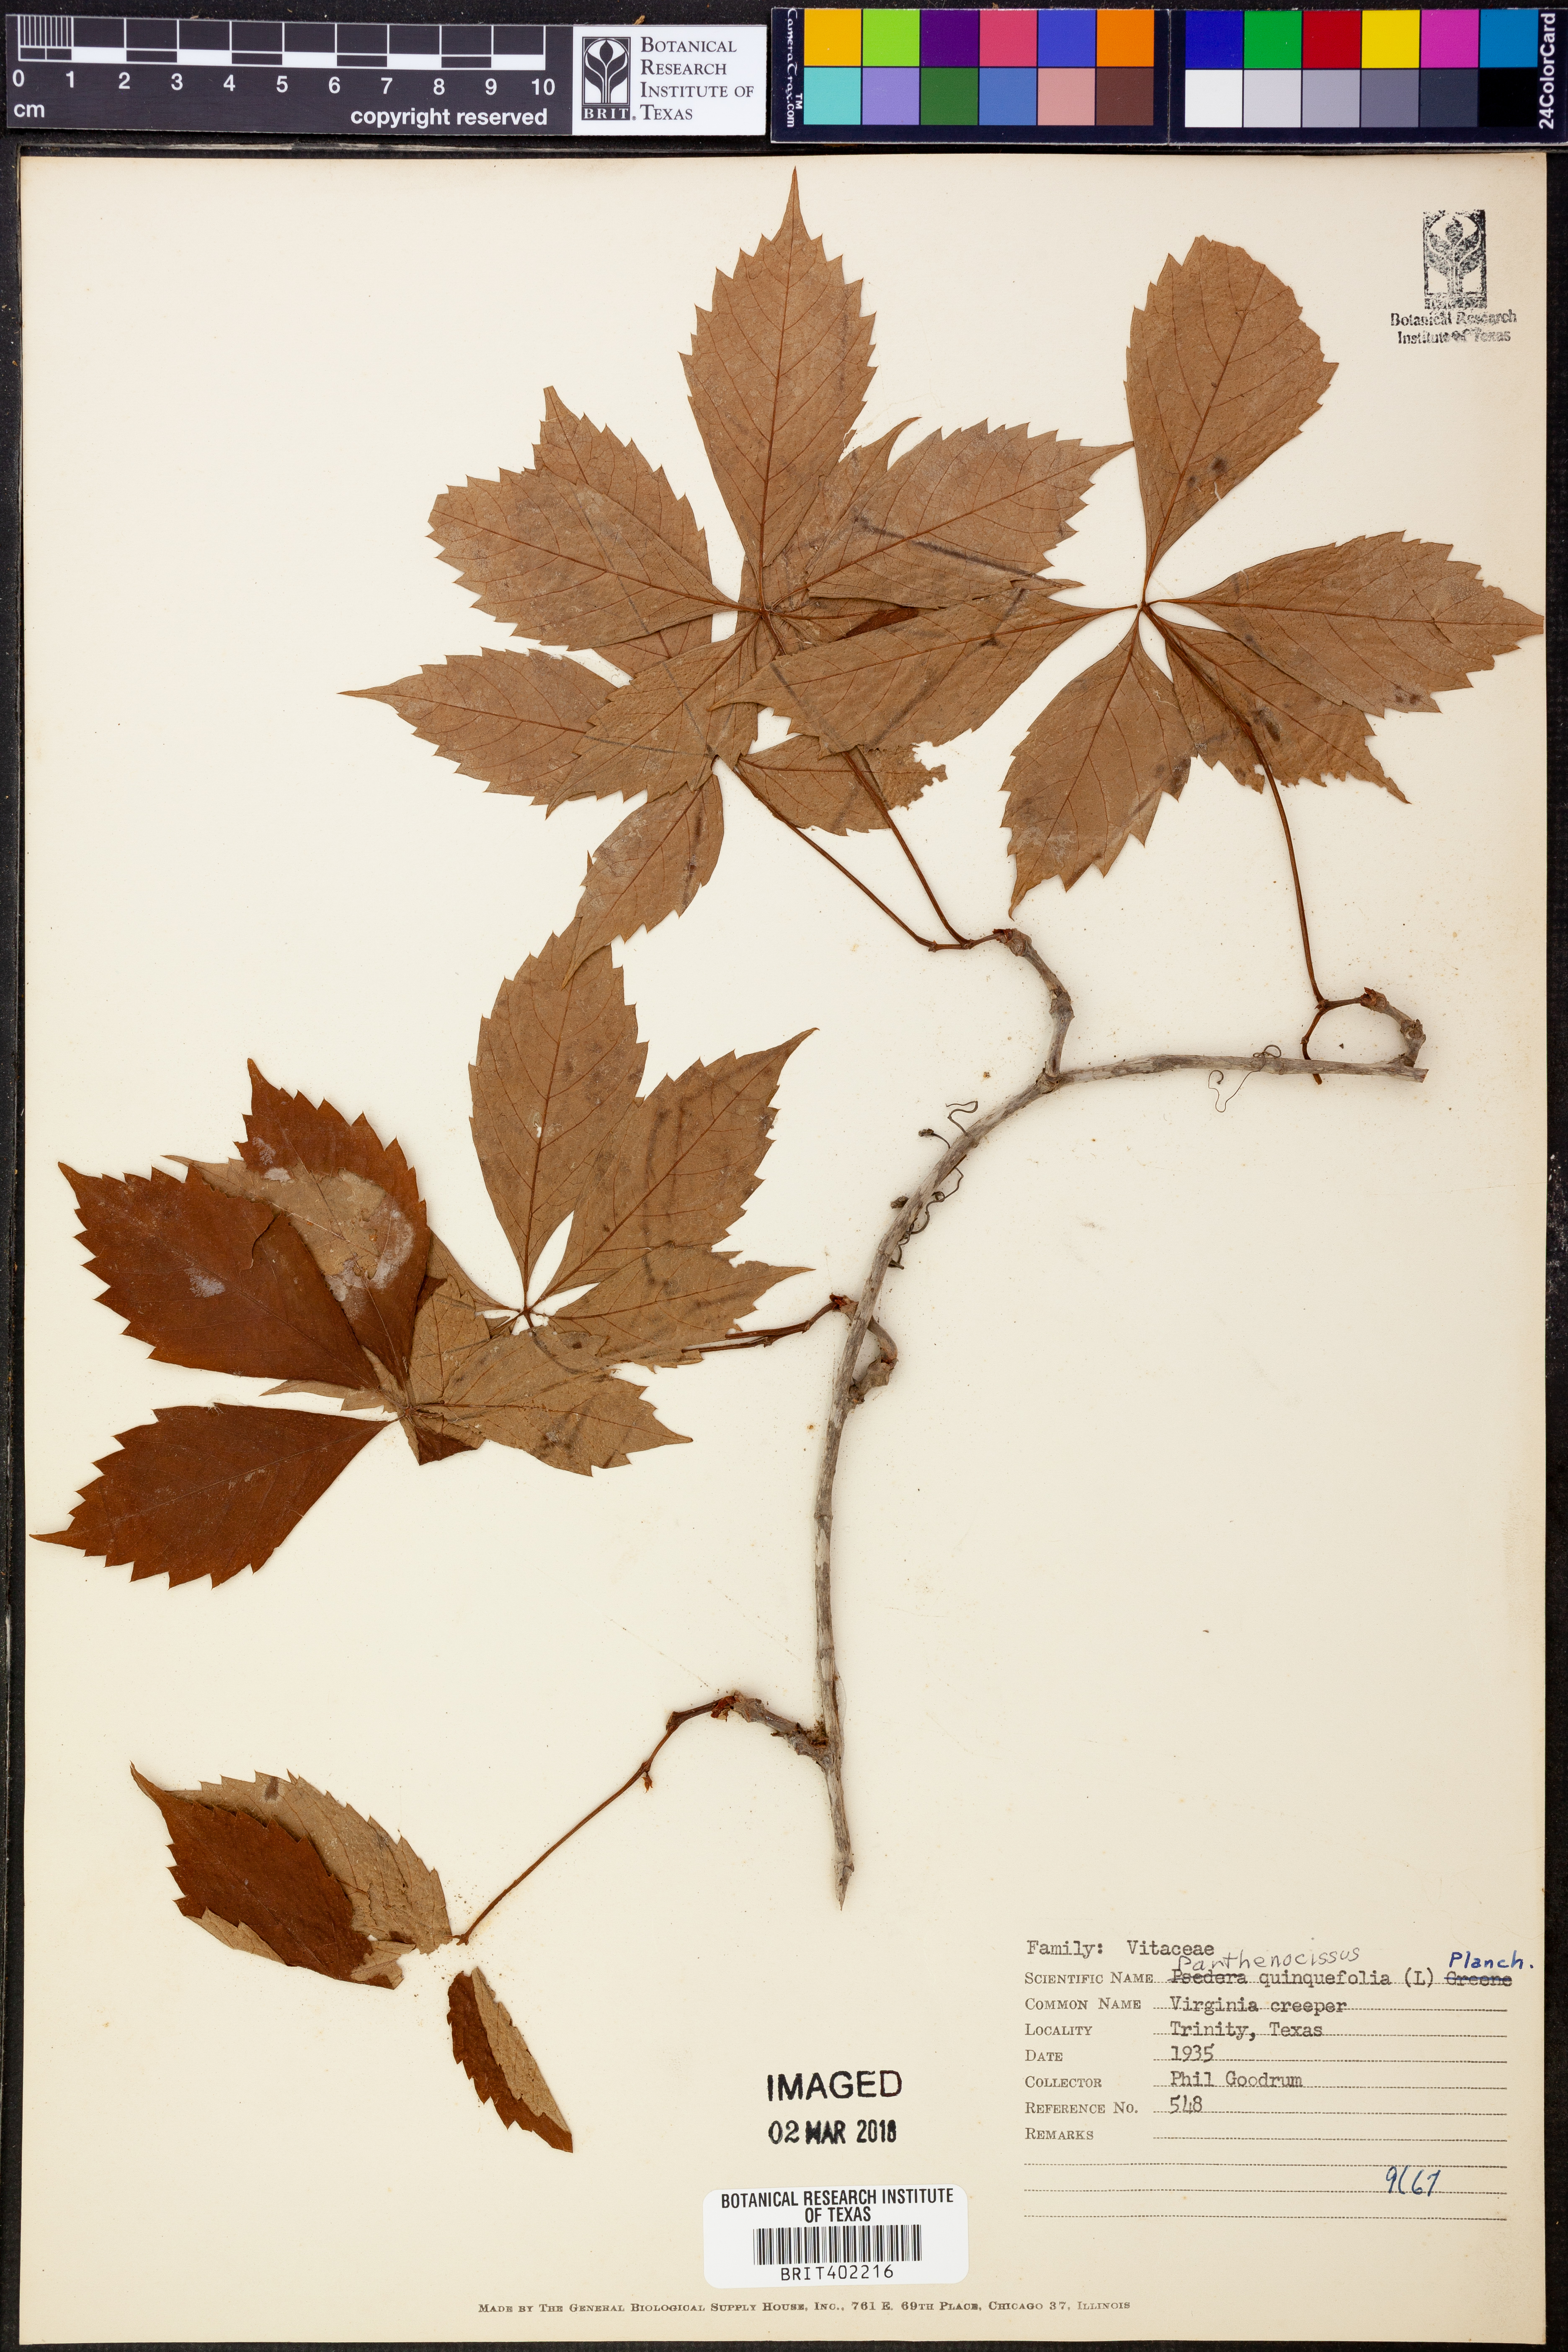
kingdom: Plantae
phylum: Tracheophyta
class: Magnoliopsida
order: Vitales
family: Vitaceae
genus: Parthenocissus
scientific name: Parthenocissus quinquefolia
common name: Virginia-creeper
